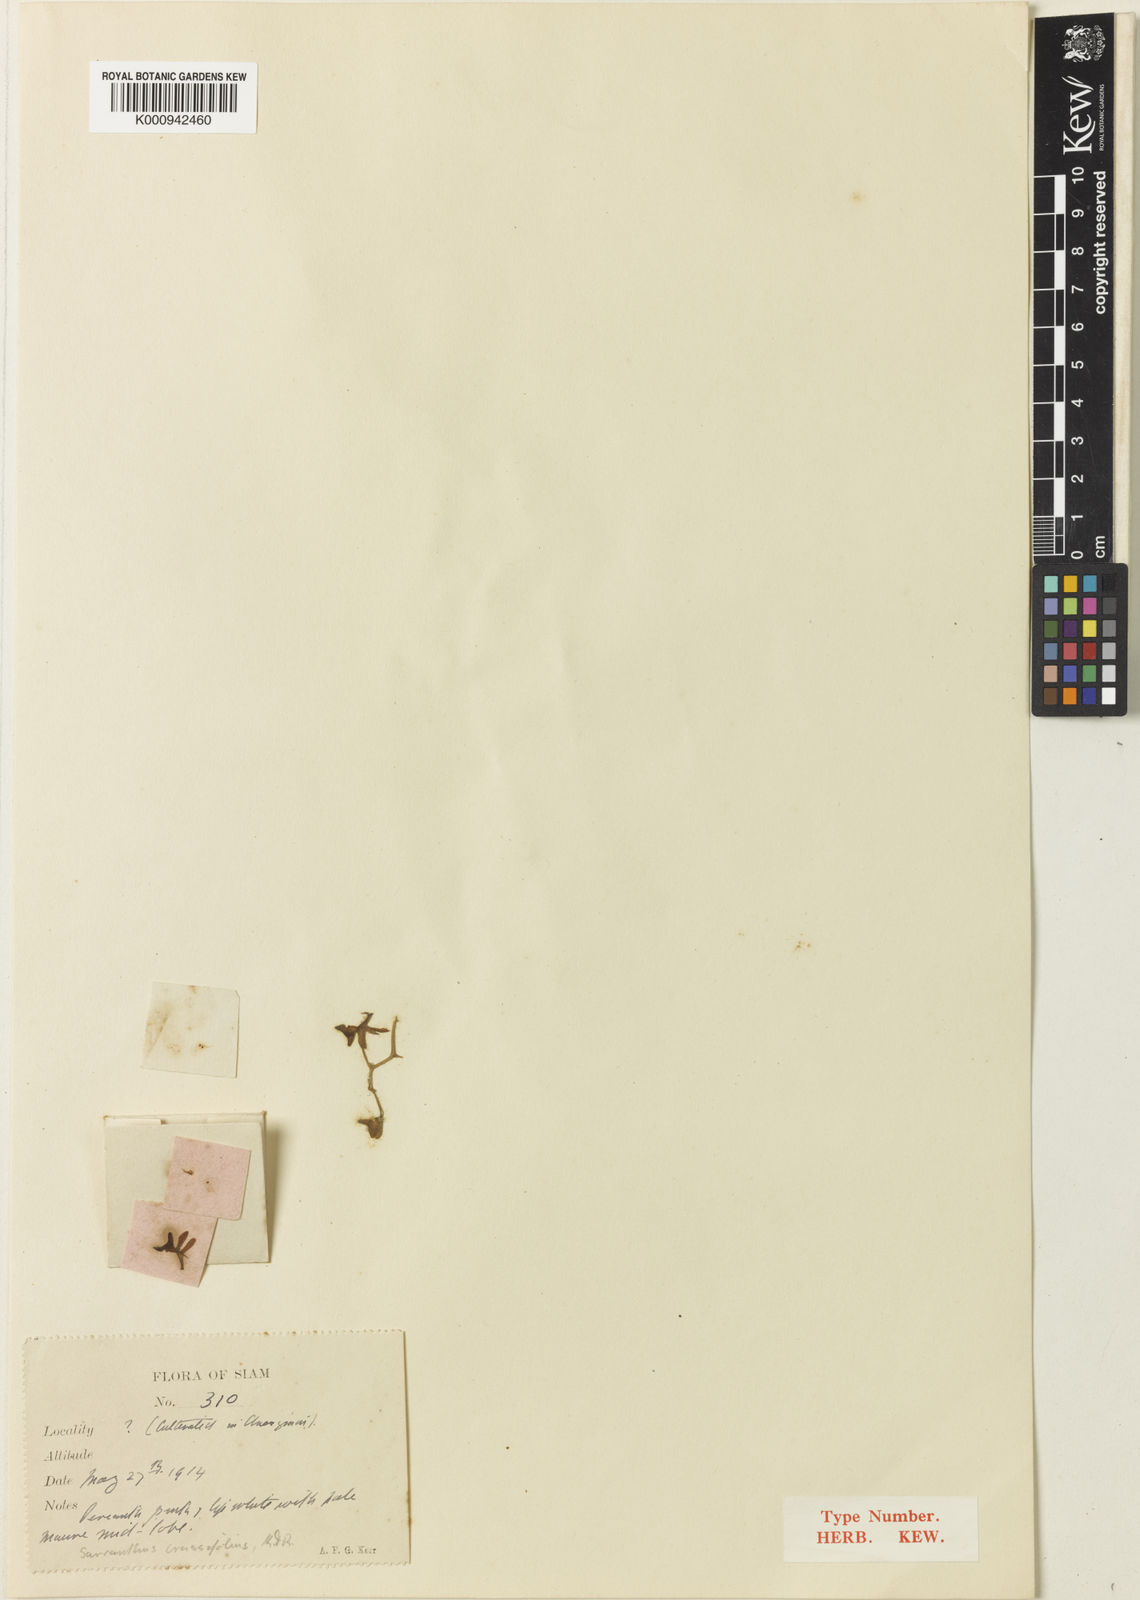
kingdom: Plantae
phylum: Tracheophyta
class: Liliopsida
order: Asparagales
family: Orchidaceae
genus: Stereochilus
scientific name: Stereochilus dalatensis
